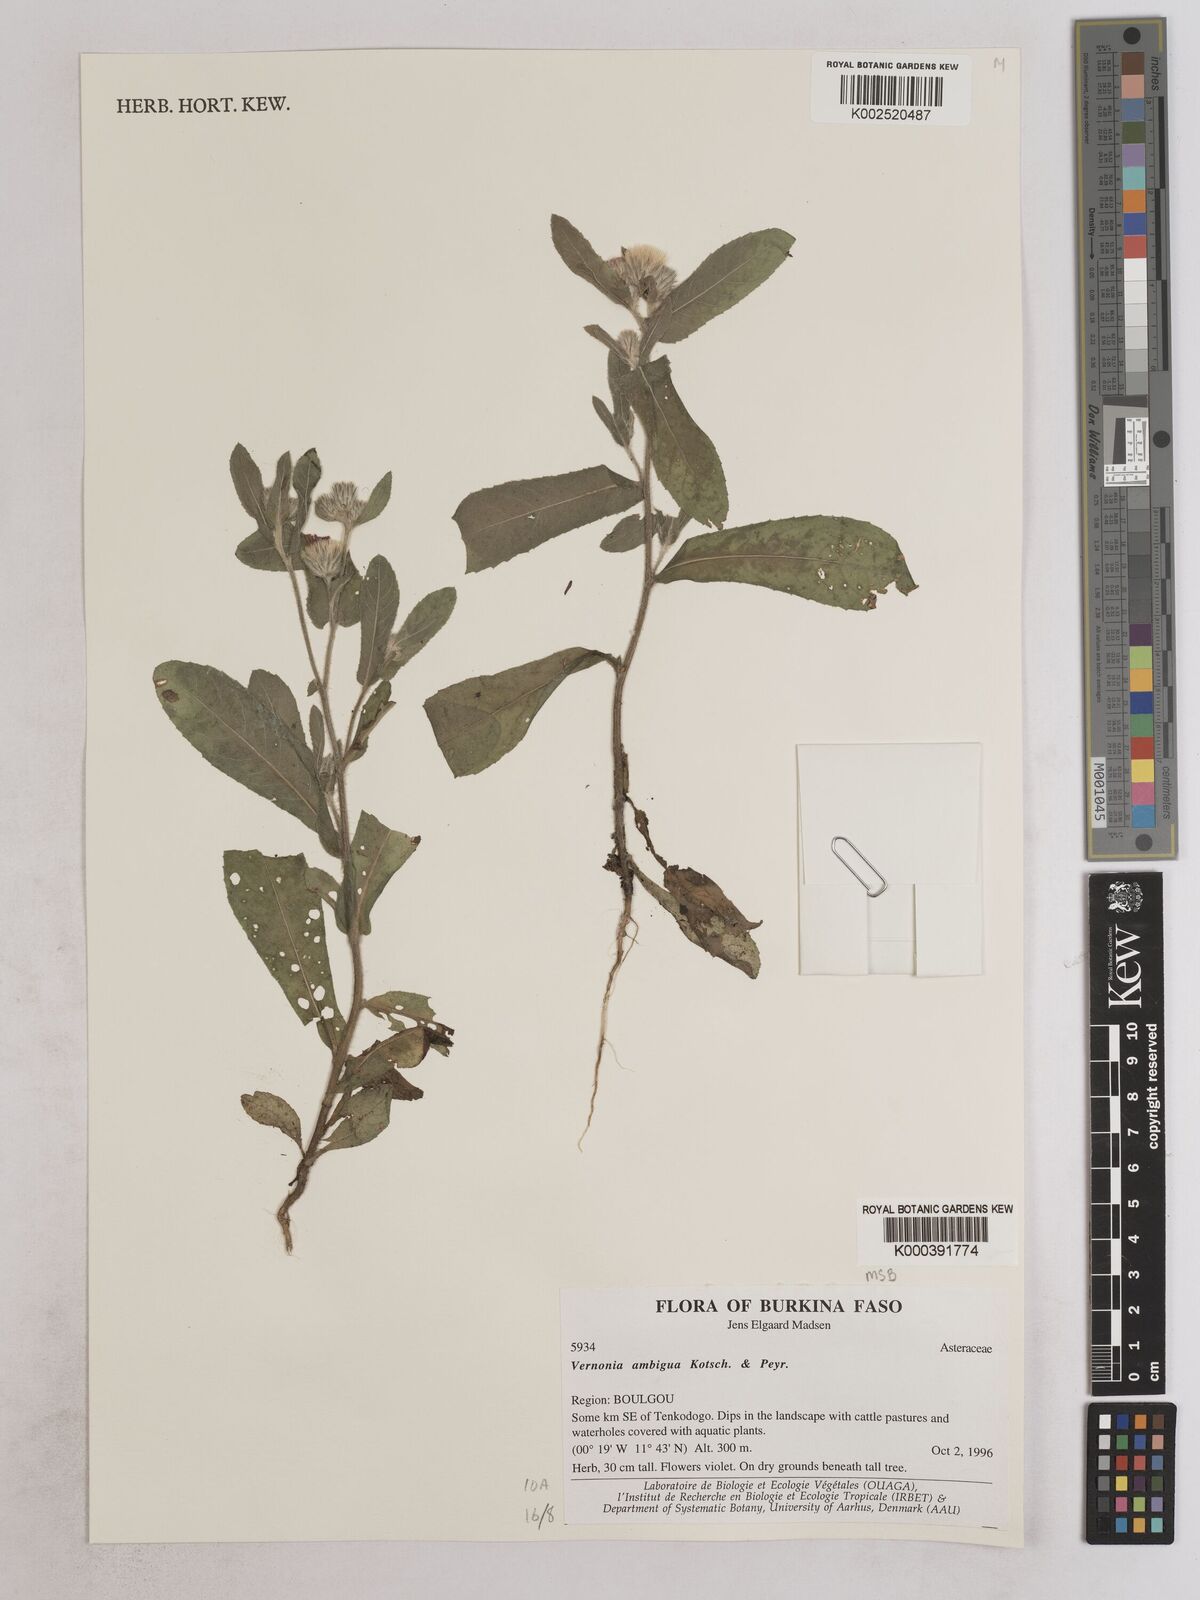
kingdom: Plantae
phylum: Tracheophyta
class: Magnoliopsida
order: Asterales
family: Asteraceae
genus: Vernoniastrum
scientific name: Vernoniastrum ambiguum
